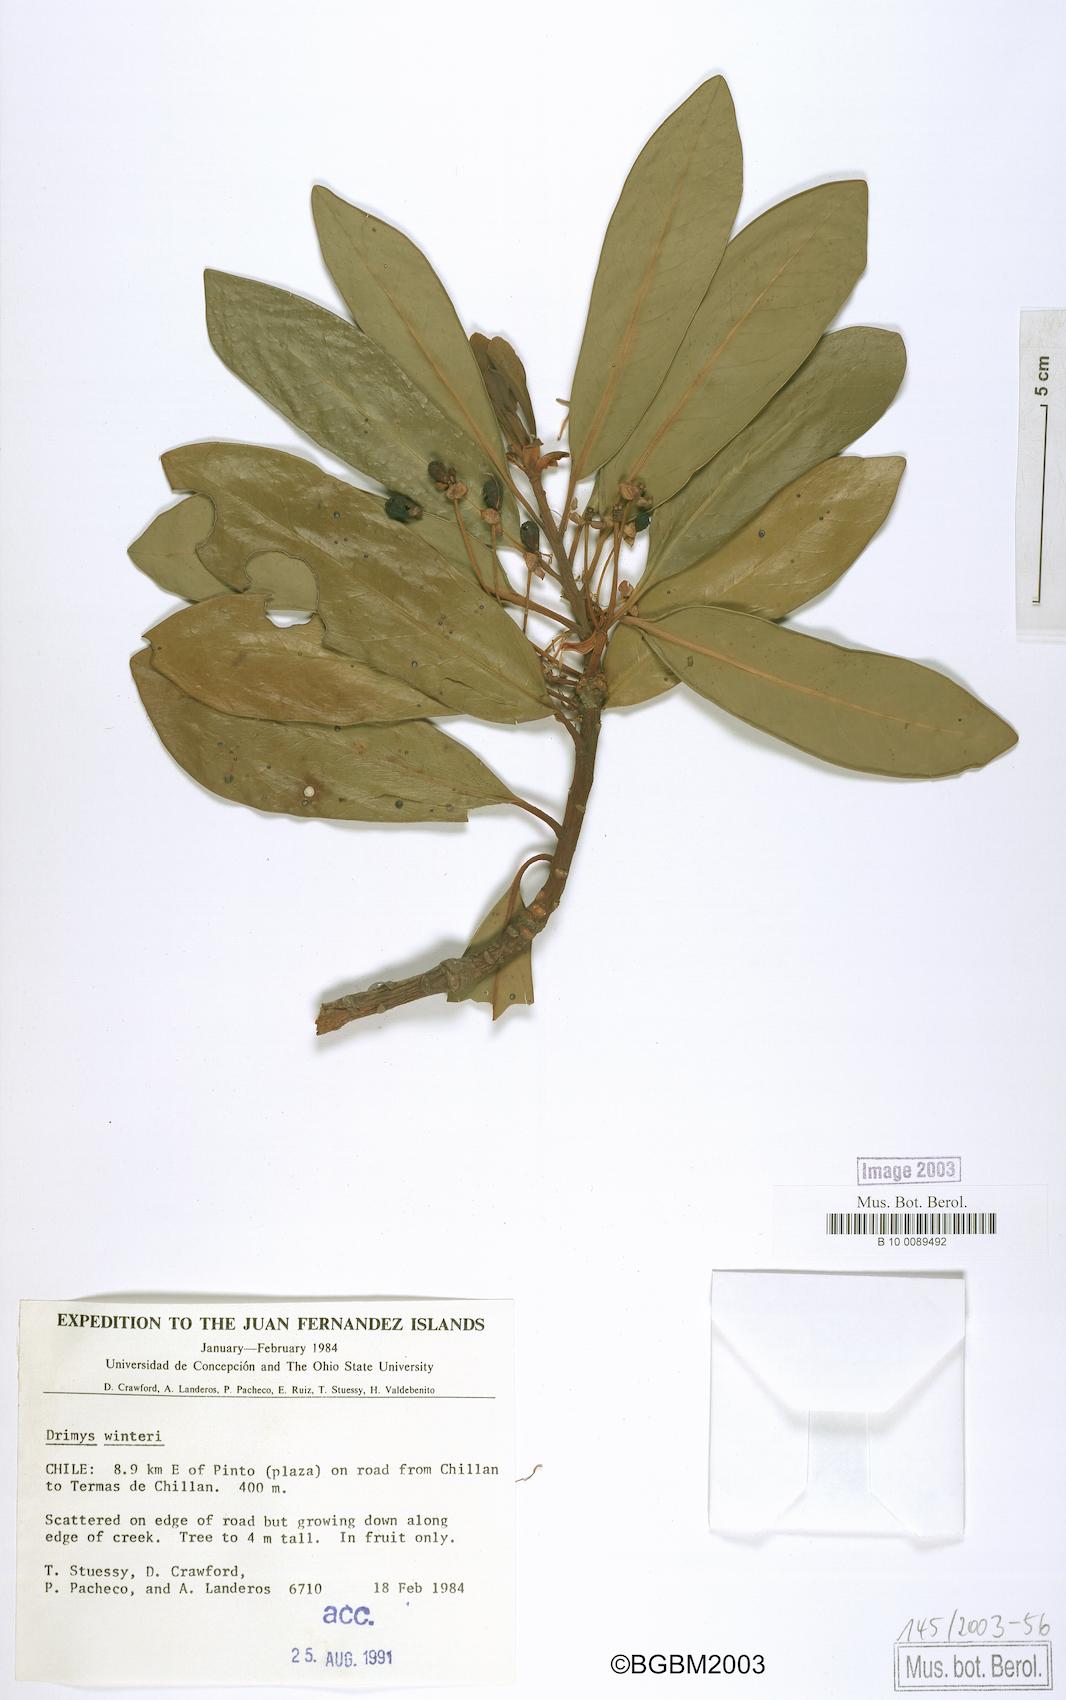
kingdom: Plantae
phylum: Tracheophyta
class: Magnoliopsida
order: Canellales
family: Winteraceae
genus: Drimys
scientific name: Drimys winteri
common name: Winter's-bark
